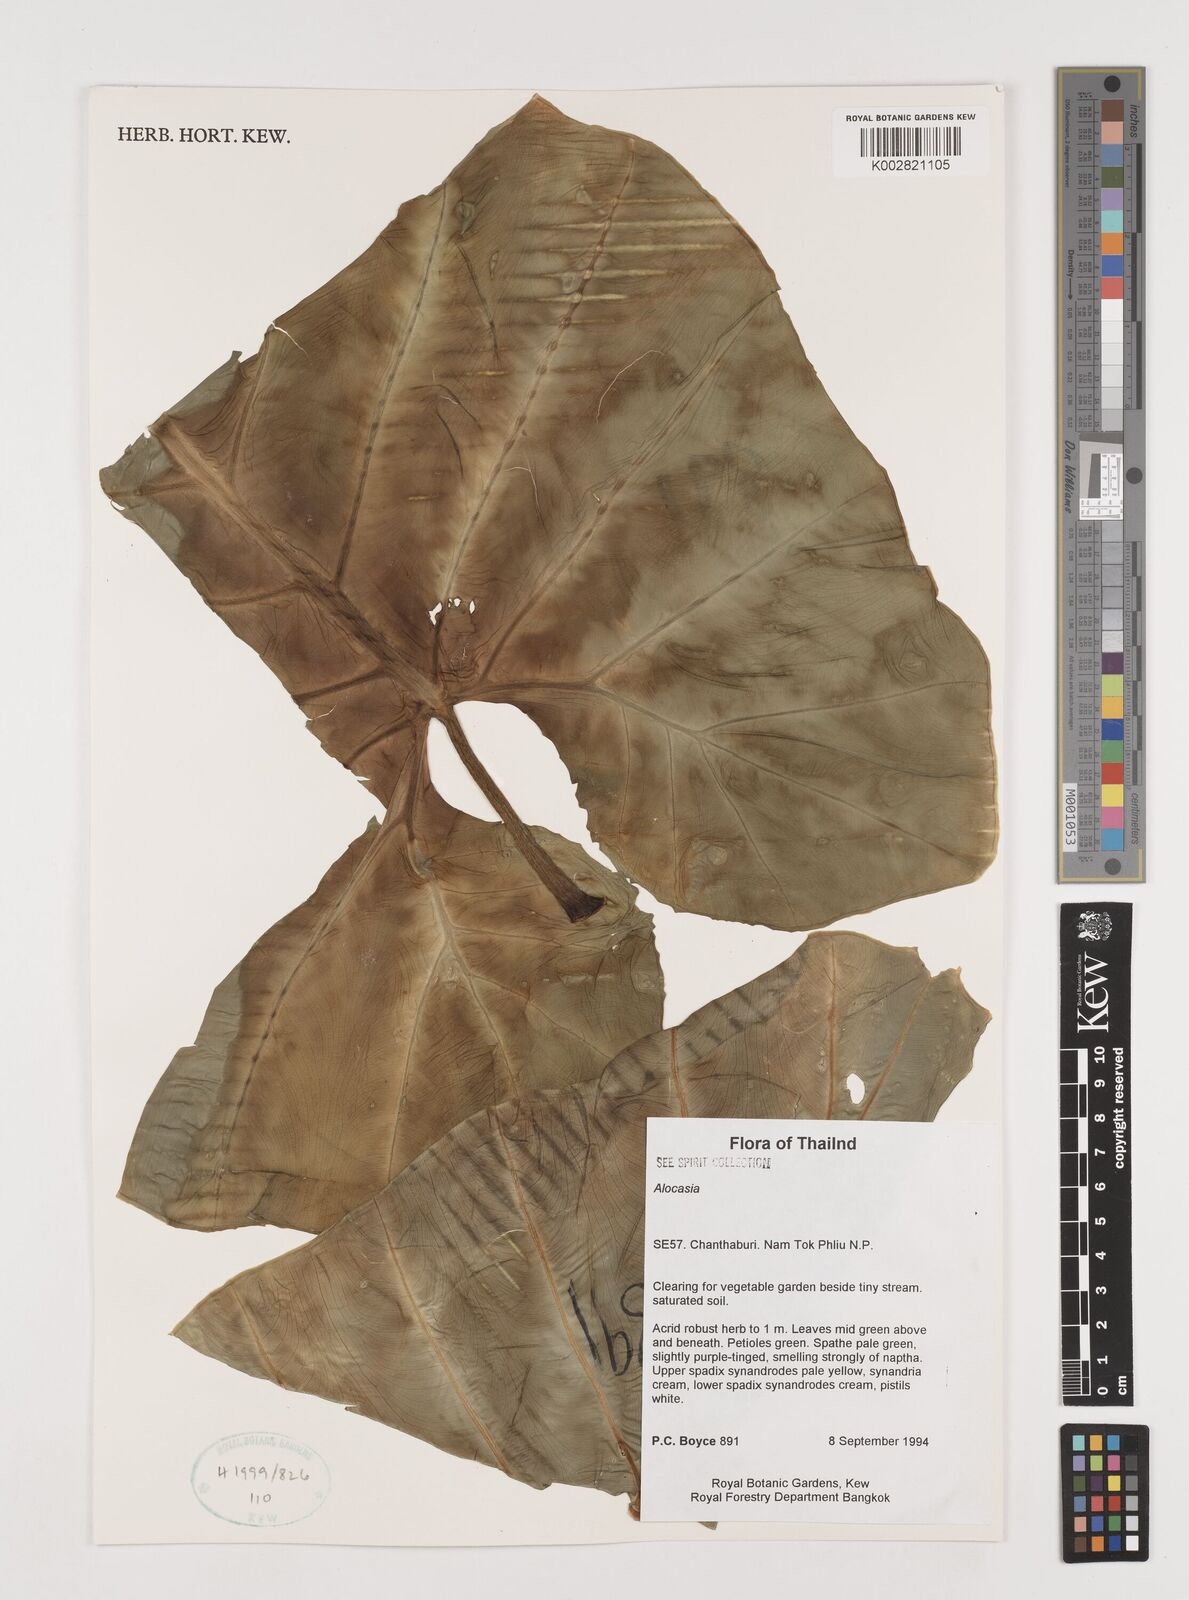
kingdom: Plantae
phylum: Tracheophyta
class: Liliopsida
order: Alismatales
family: Araceae
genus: Alocasia
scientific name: Alocasia
